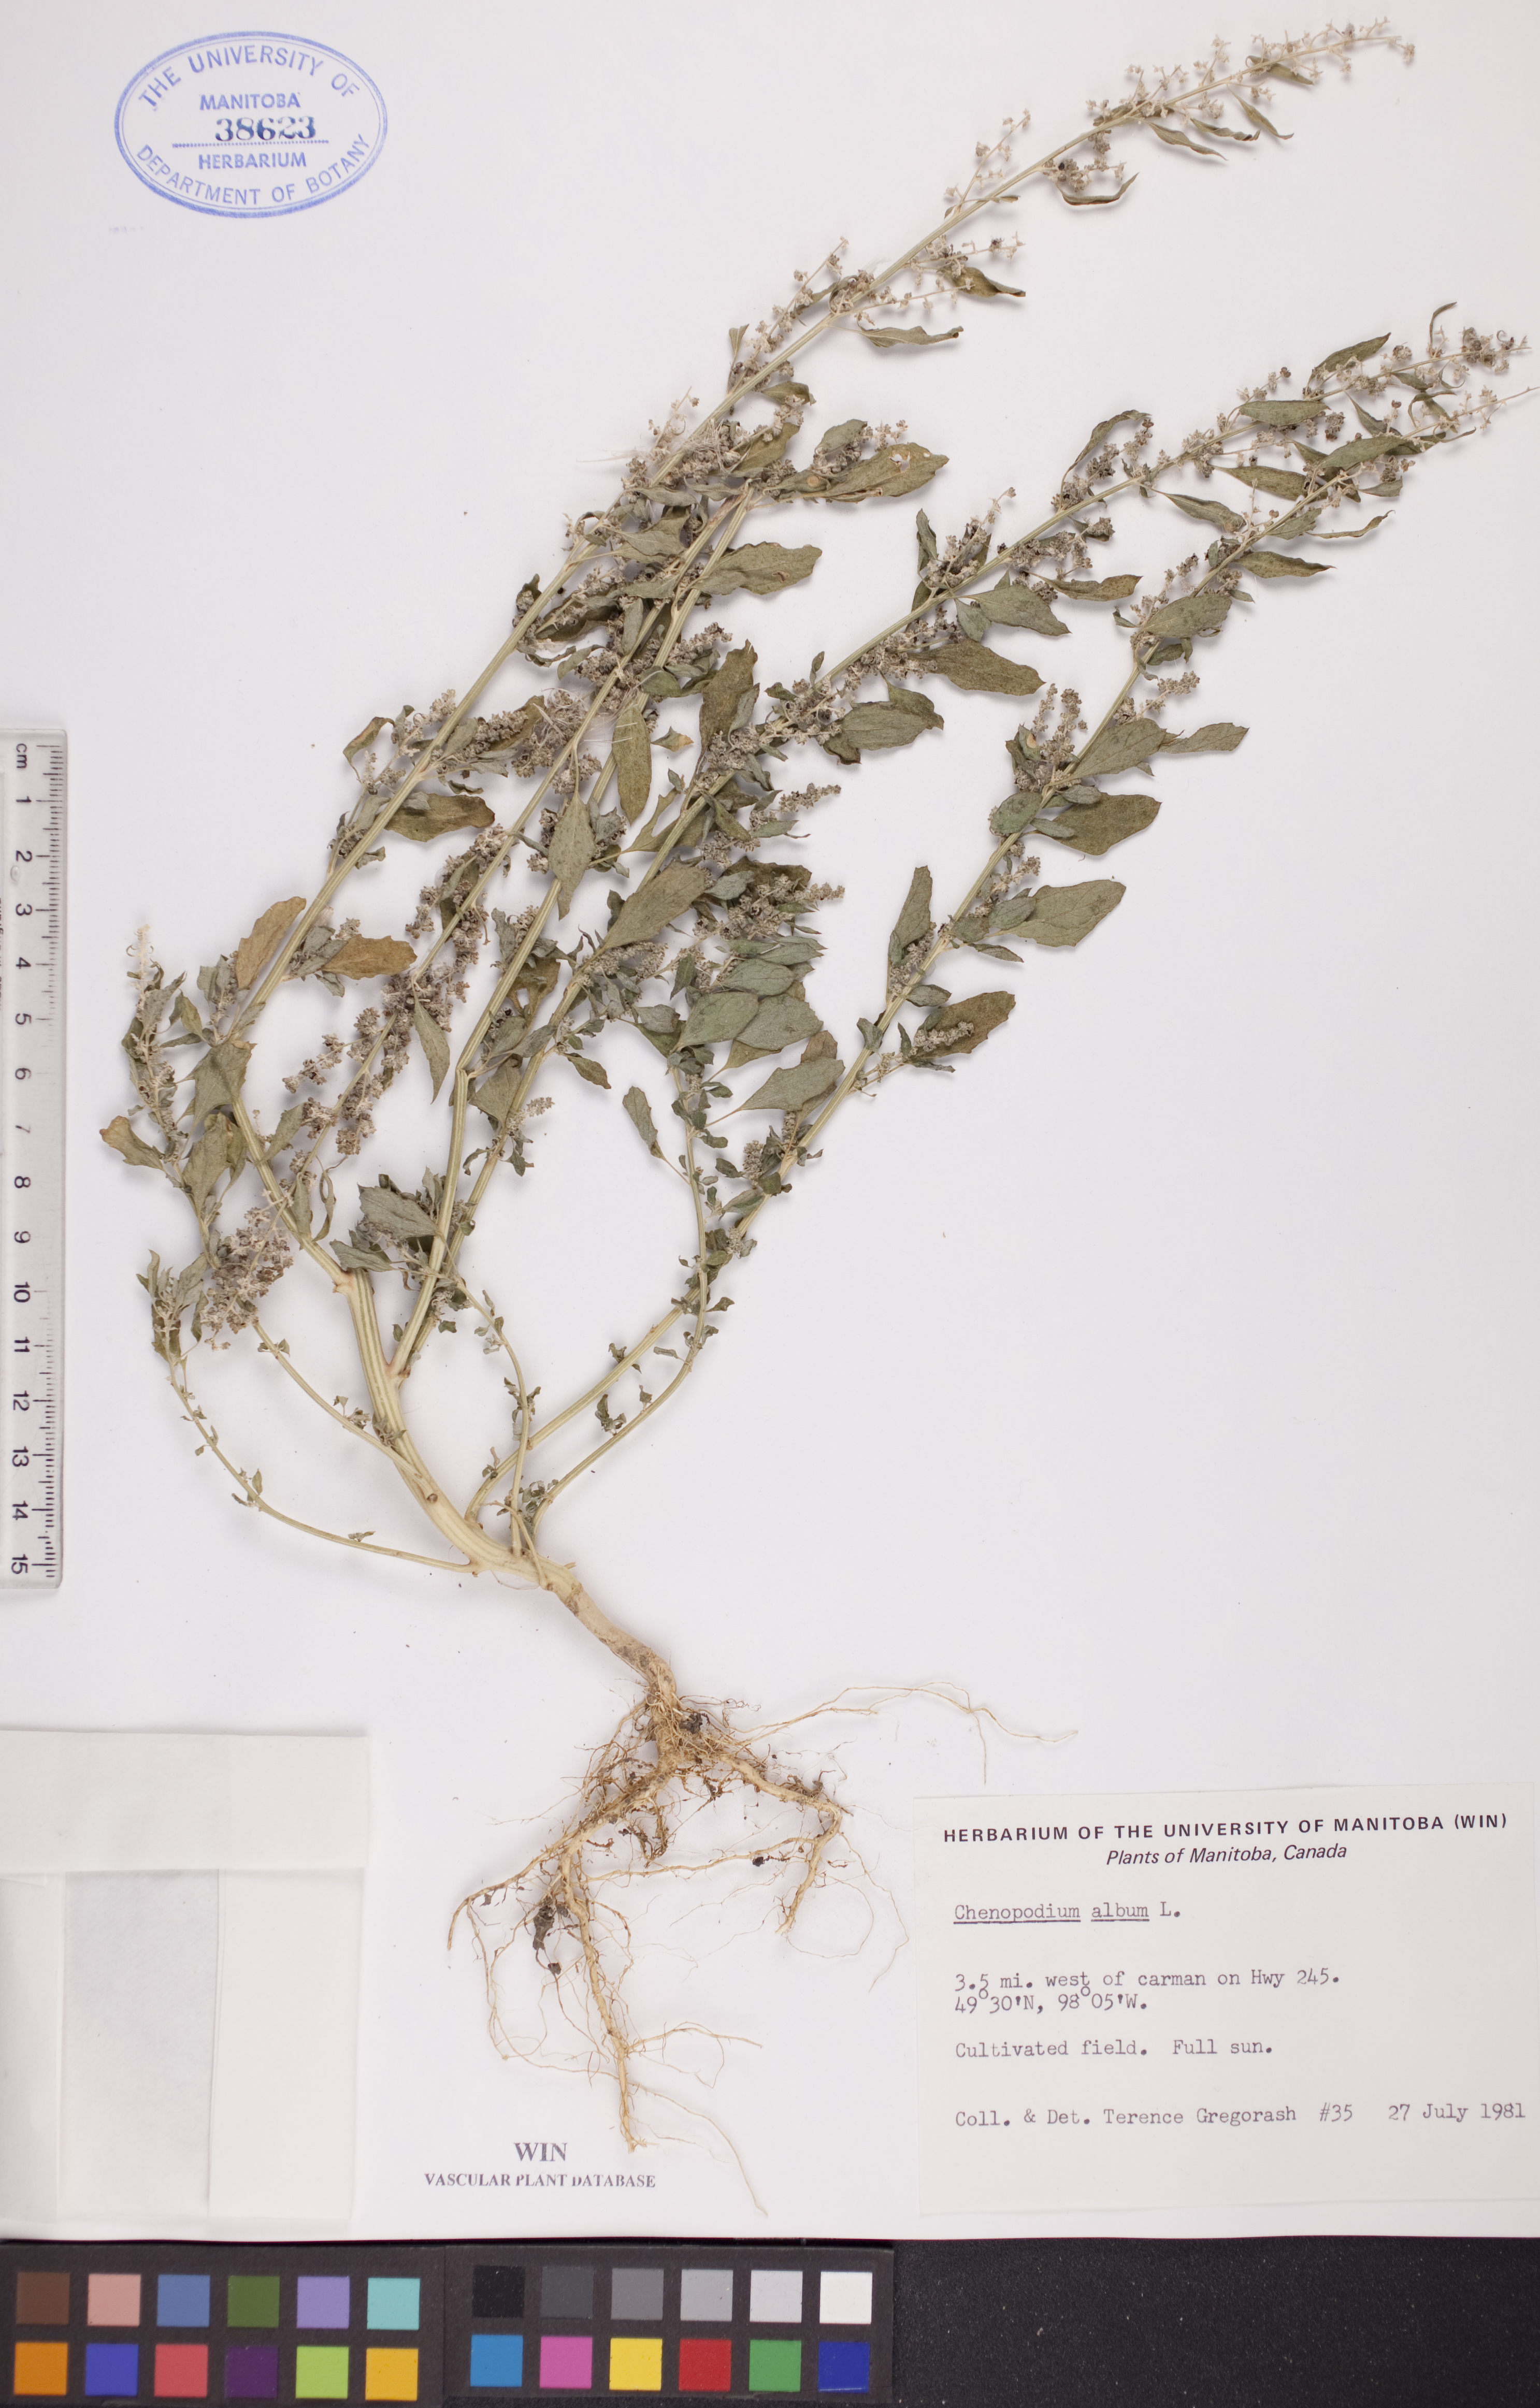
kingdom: Plantae
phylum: Tracheophyta
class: Magnoliopsida
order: Caryophyllales
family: Amaranthaceae
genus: Chenopodium
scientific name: Chenopodium album
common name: Fat-hen
